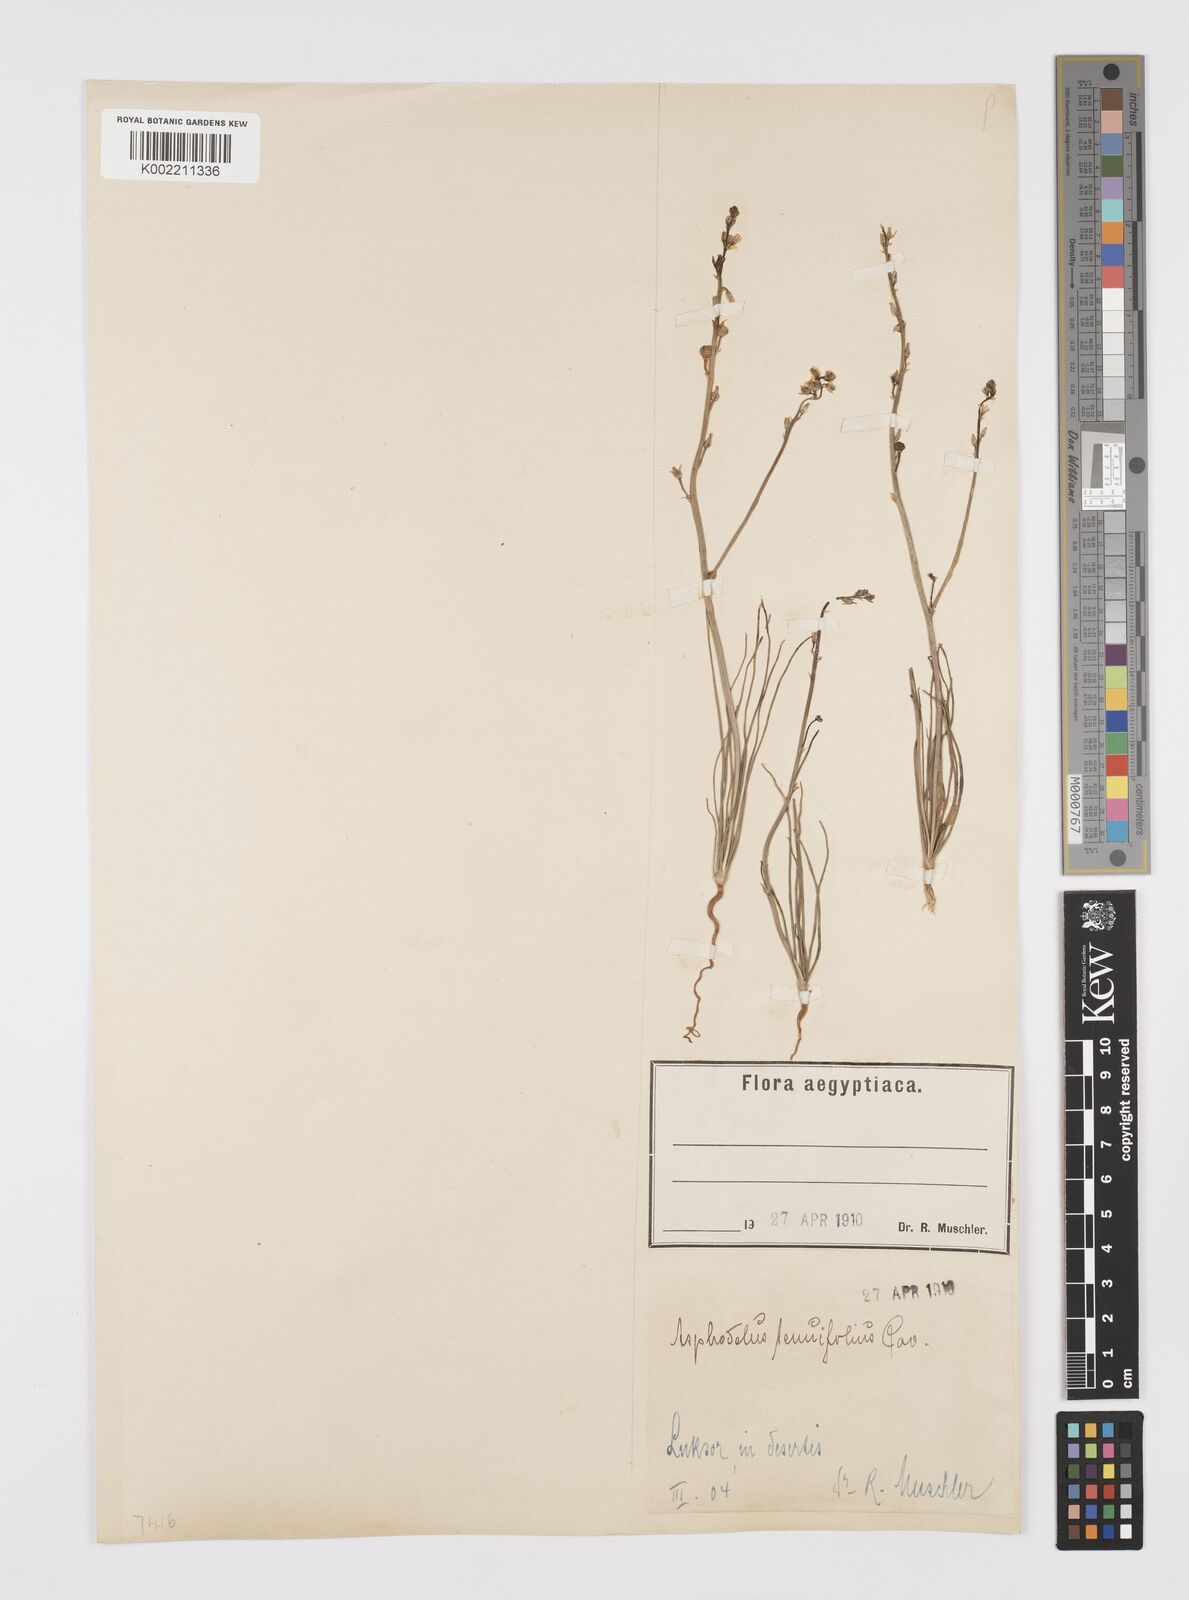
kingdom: Plantae
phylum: Tracheophyta
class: Liliopsida
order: Asparagales
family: Asphodelaceae
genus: Asphodelus
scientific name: Asphodelus tenuifolius
